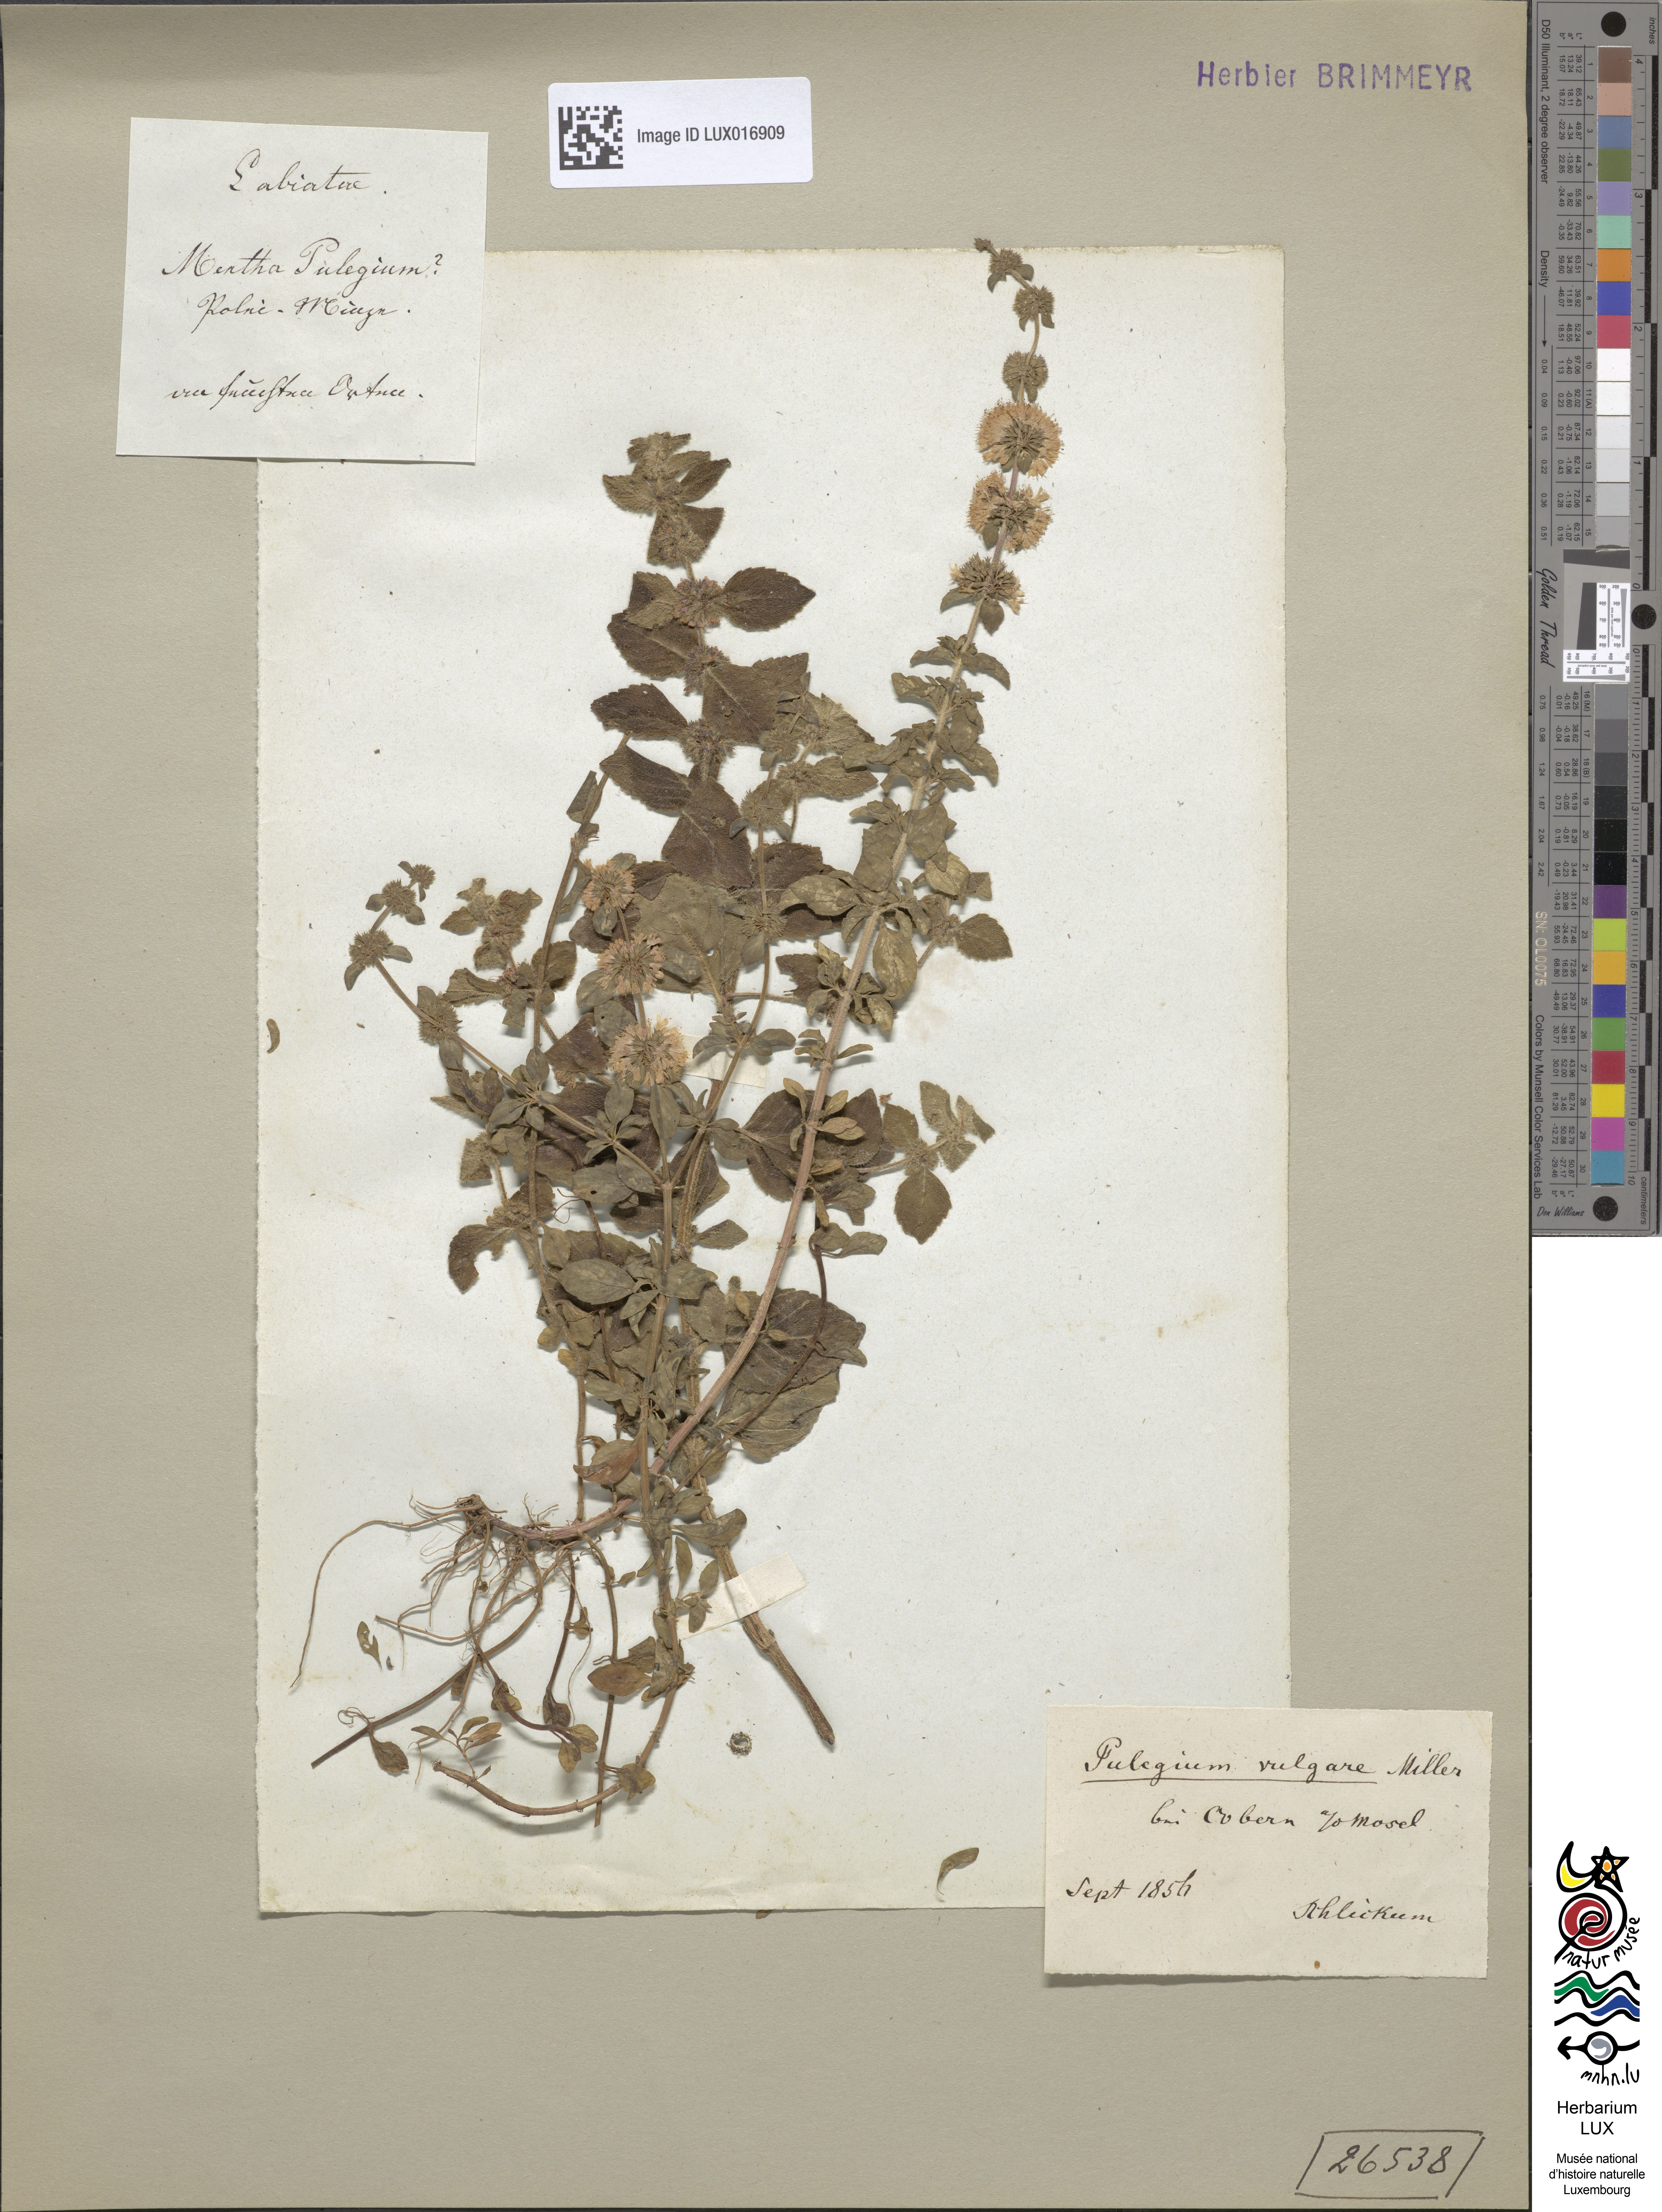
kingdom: Plantae
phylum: Tracheophyta
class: Magnoliopsida
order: Lamiales
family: Lamiaceae
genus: Mentha
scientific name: Mentha pulegium
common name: Pennyroyal
